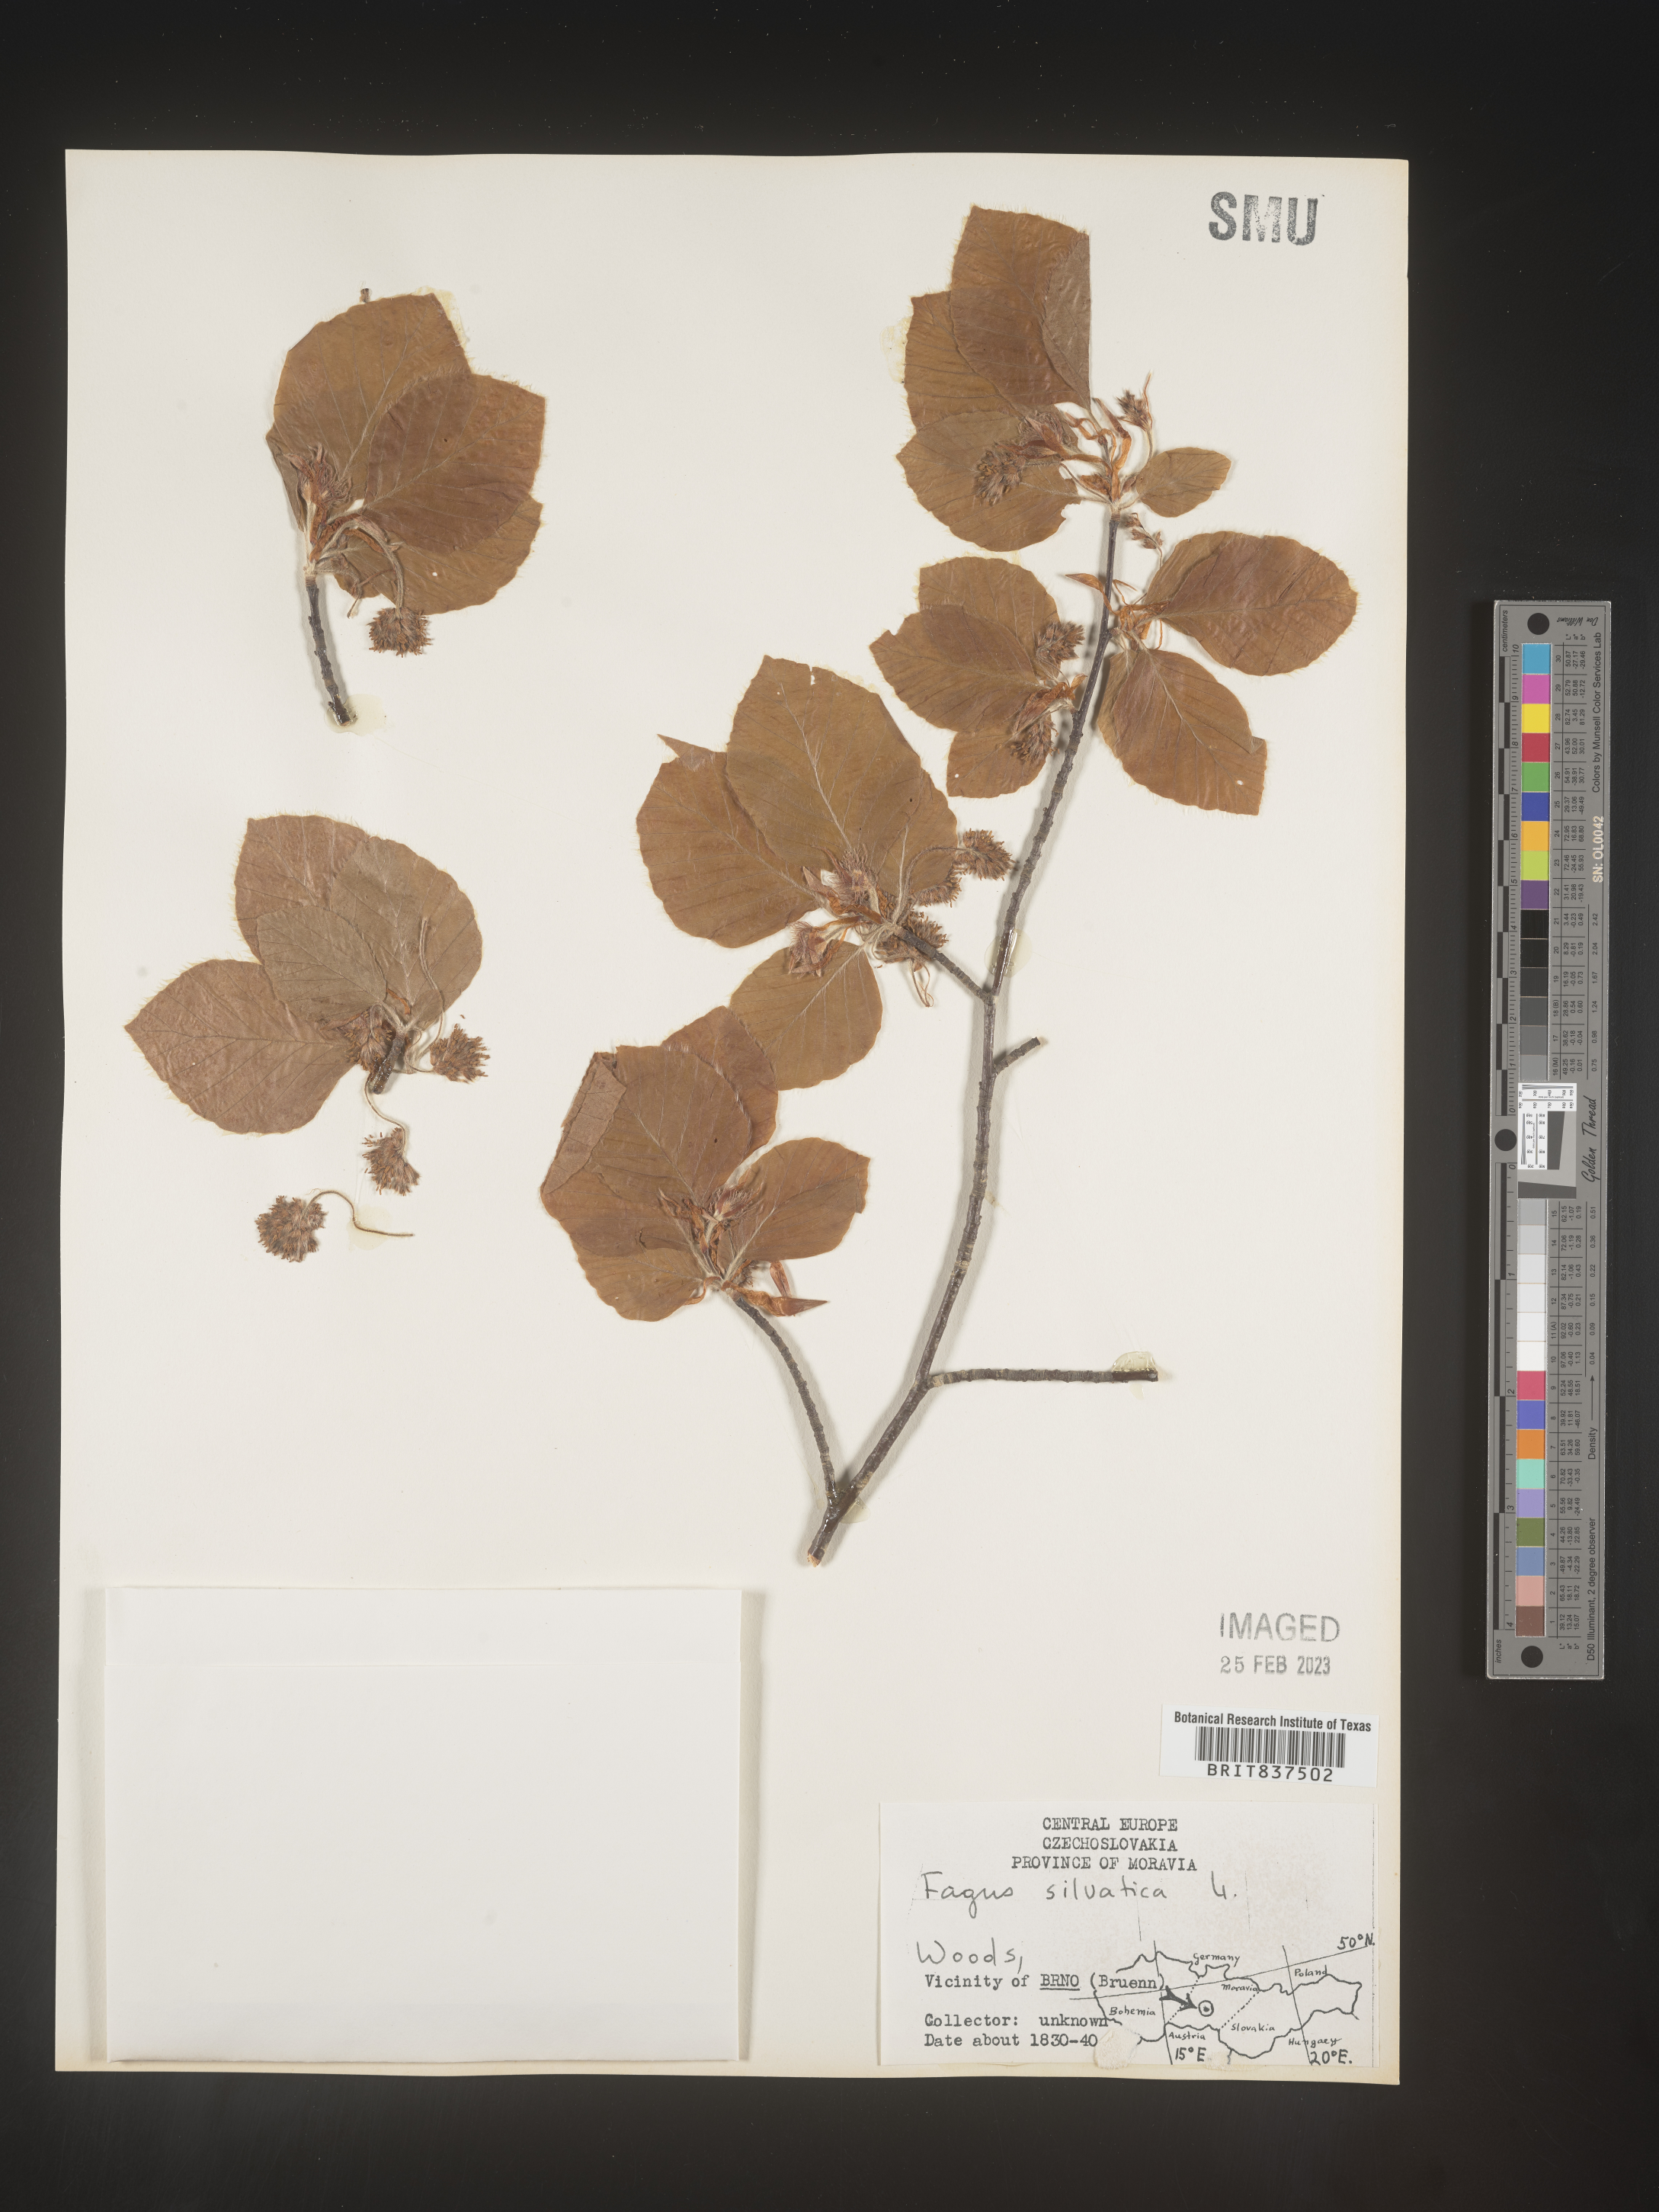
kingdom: Plantae
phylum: Tracheophyta
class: Magnoliopsida
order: Fagales
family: Fagaceae
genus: Fagus
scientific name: Fagus
